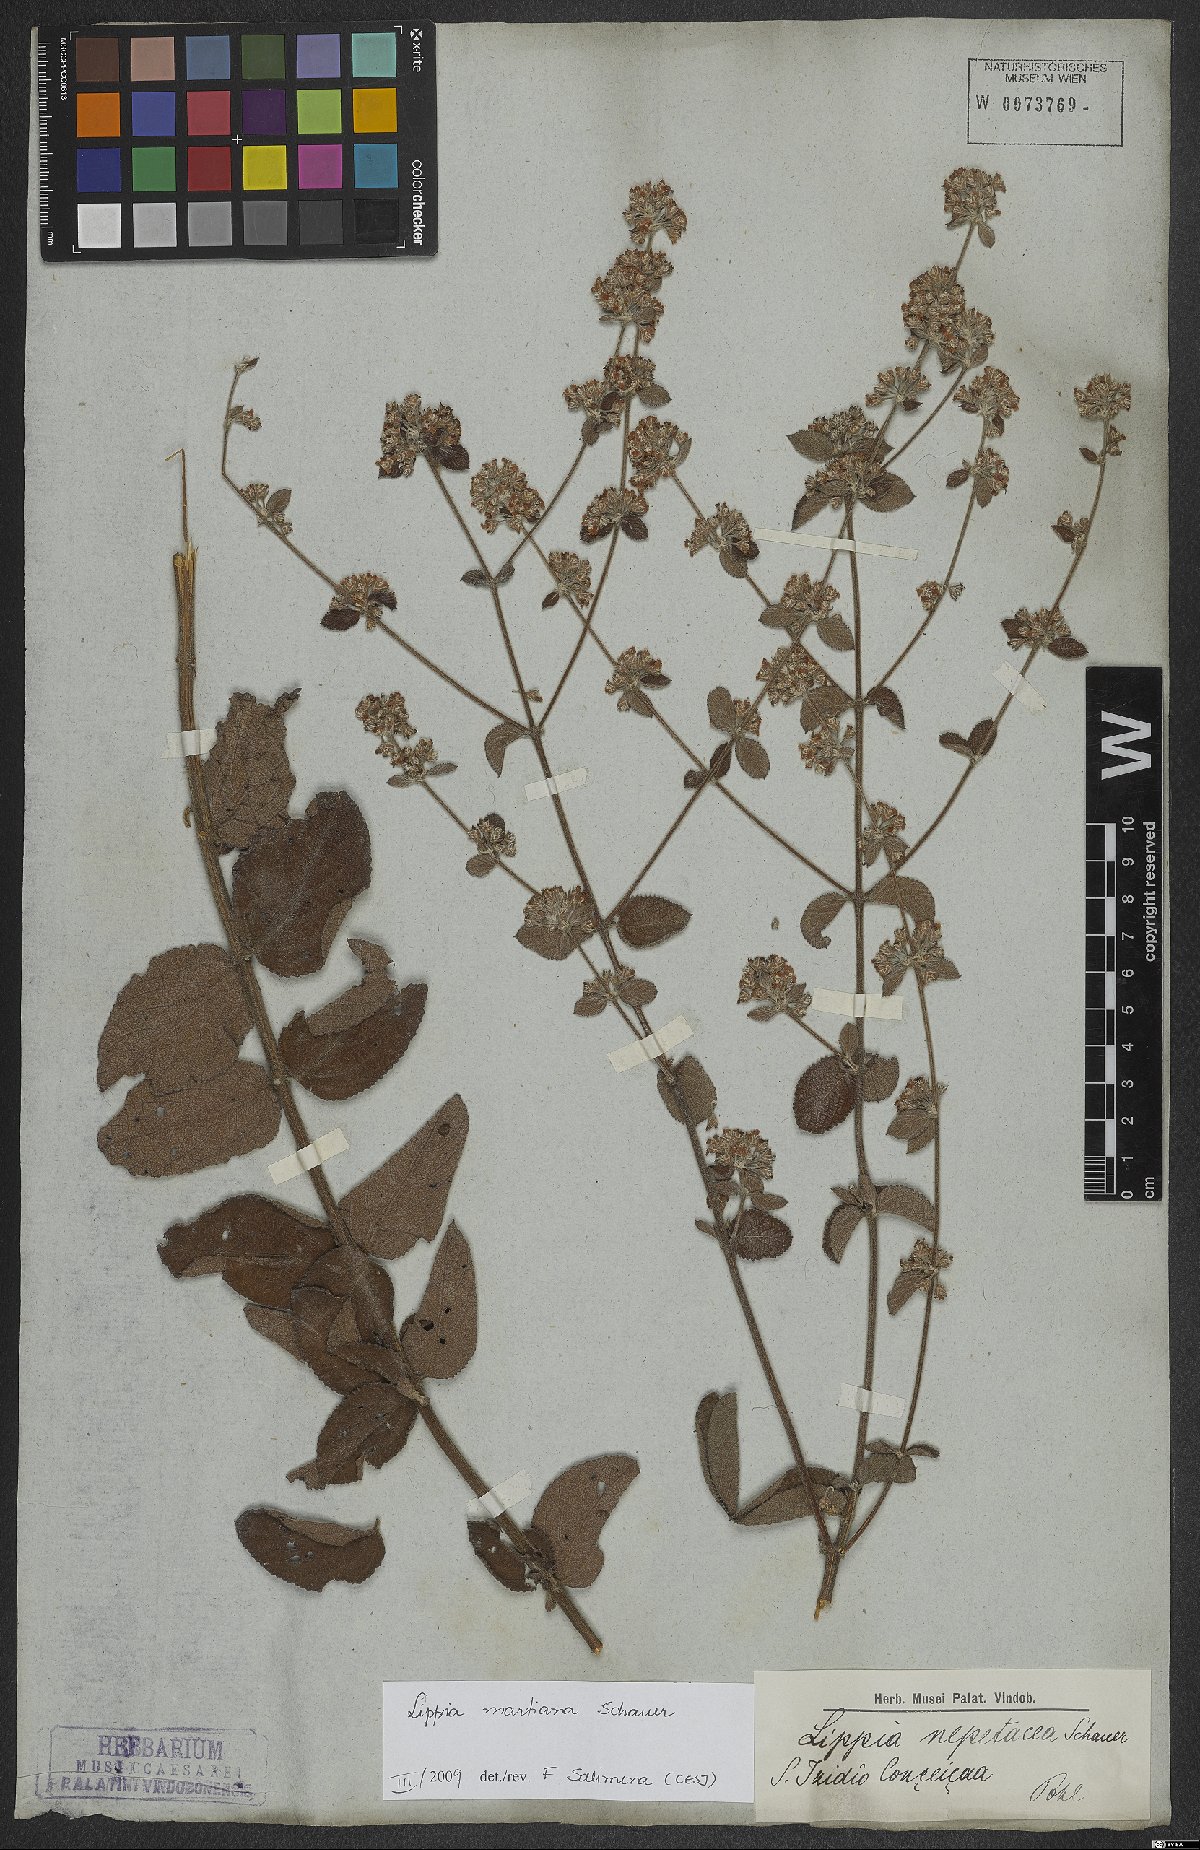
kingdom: Plantae
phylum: Tracheophyta
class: Magnoliopsida
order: Lamiales
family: Verbenaceae
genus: Lippia
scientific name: Lippia martiana
